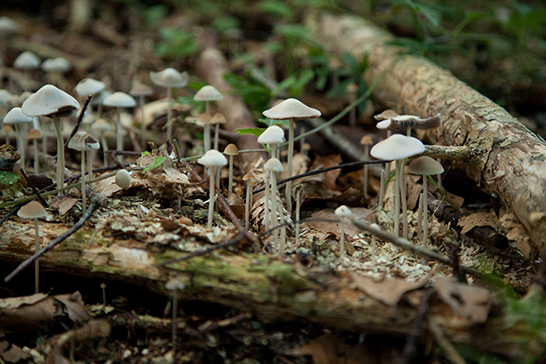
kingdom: Fungi
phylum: Basidiomycota
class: Agaricomycetes
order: Agaricales
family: Psathyrellaceae
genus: Parasola
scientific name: Parasola conopilea
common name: kegle-hjulhat
